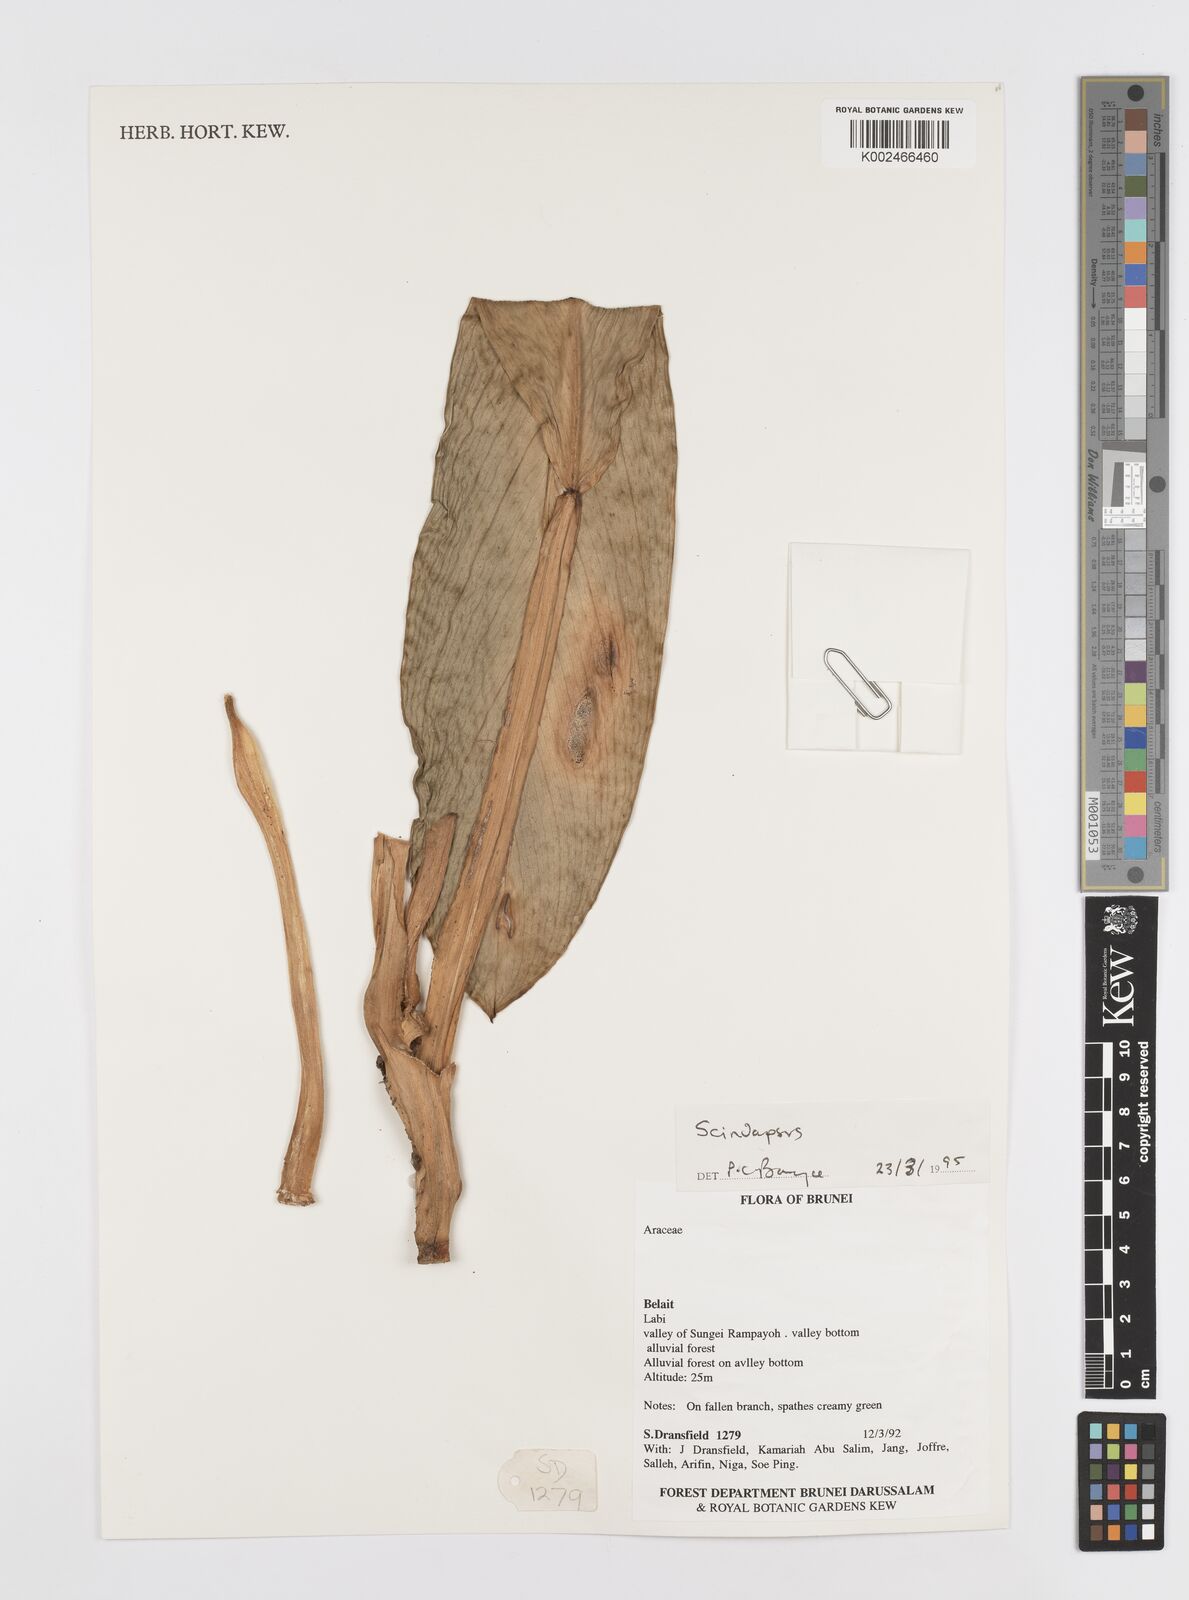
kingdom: Plantae
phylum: Tracheophyta
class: Liliopsida
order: Alismatales
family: Araceae
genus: Scindapsus
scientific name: Scindapsus longistipitatus
